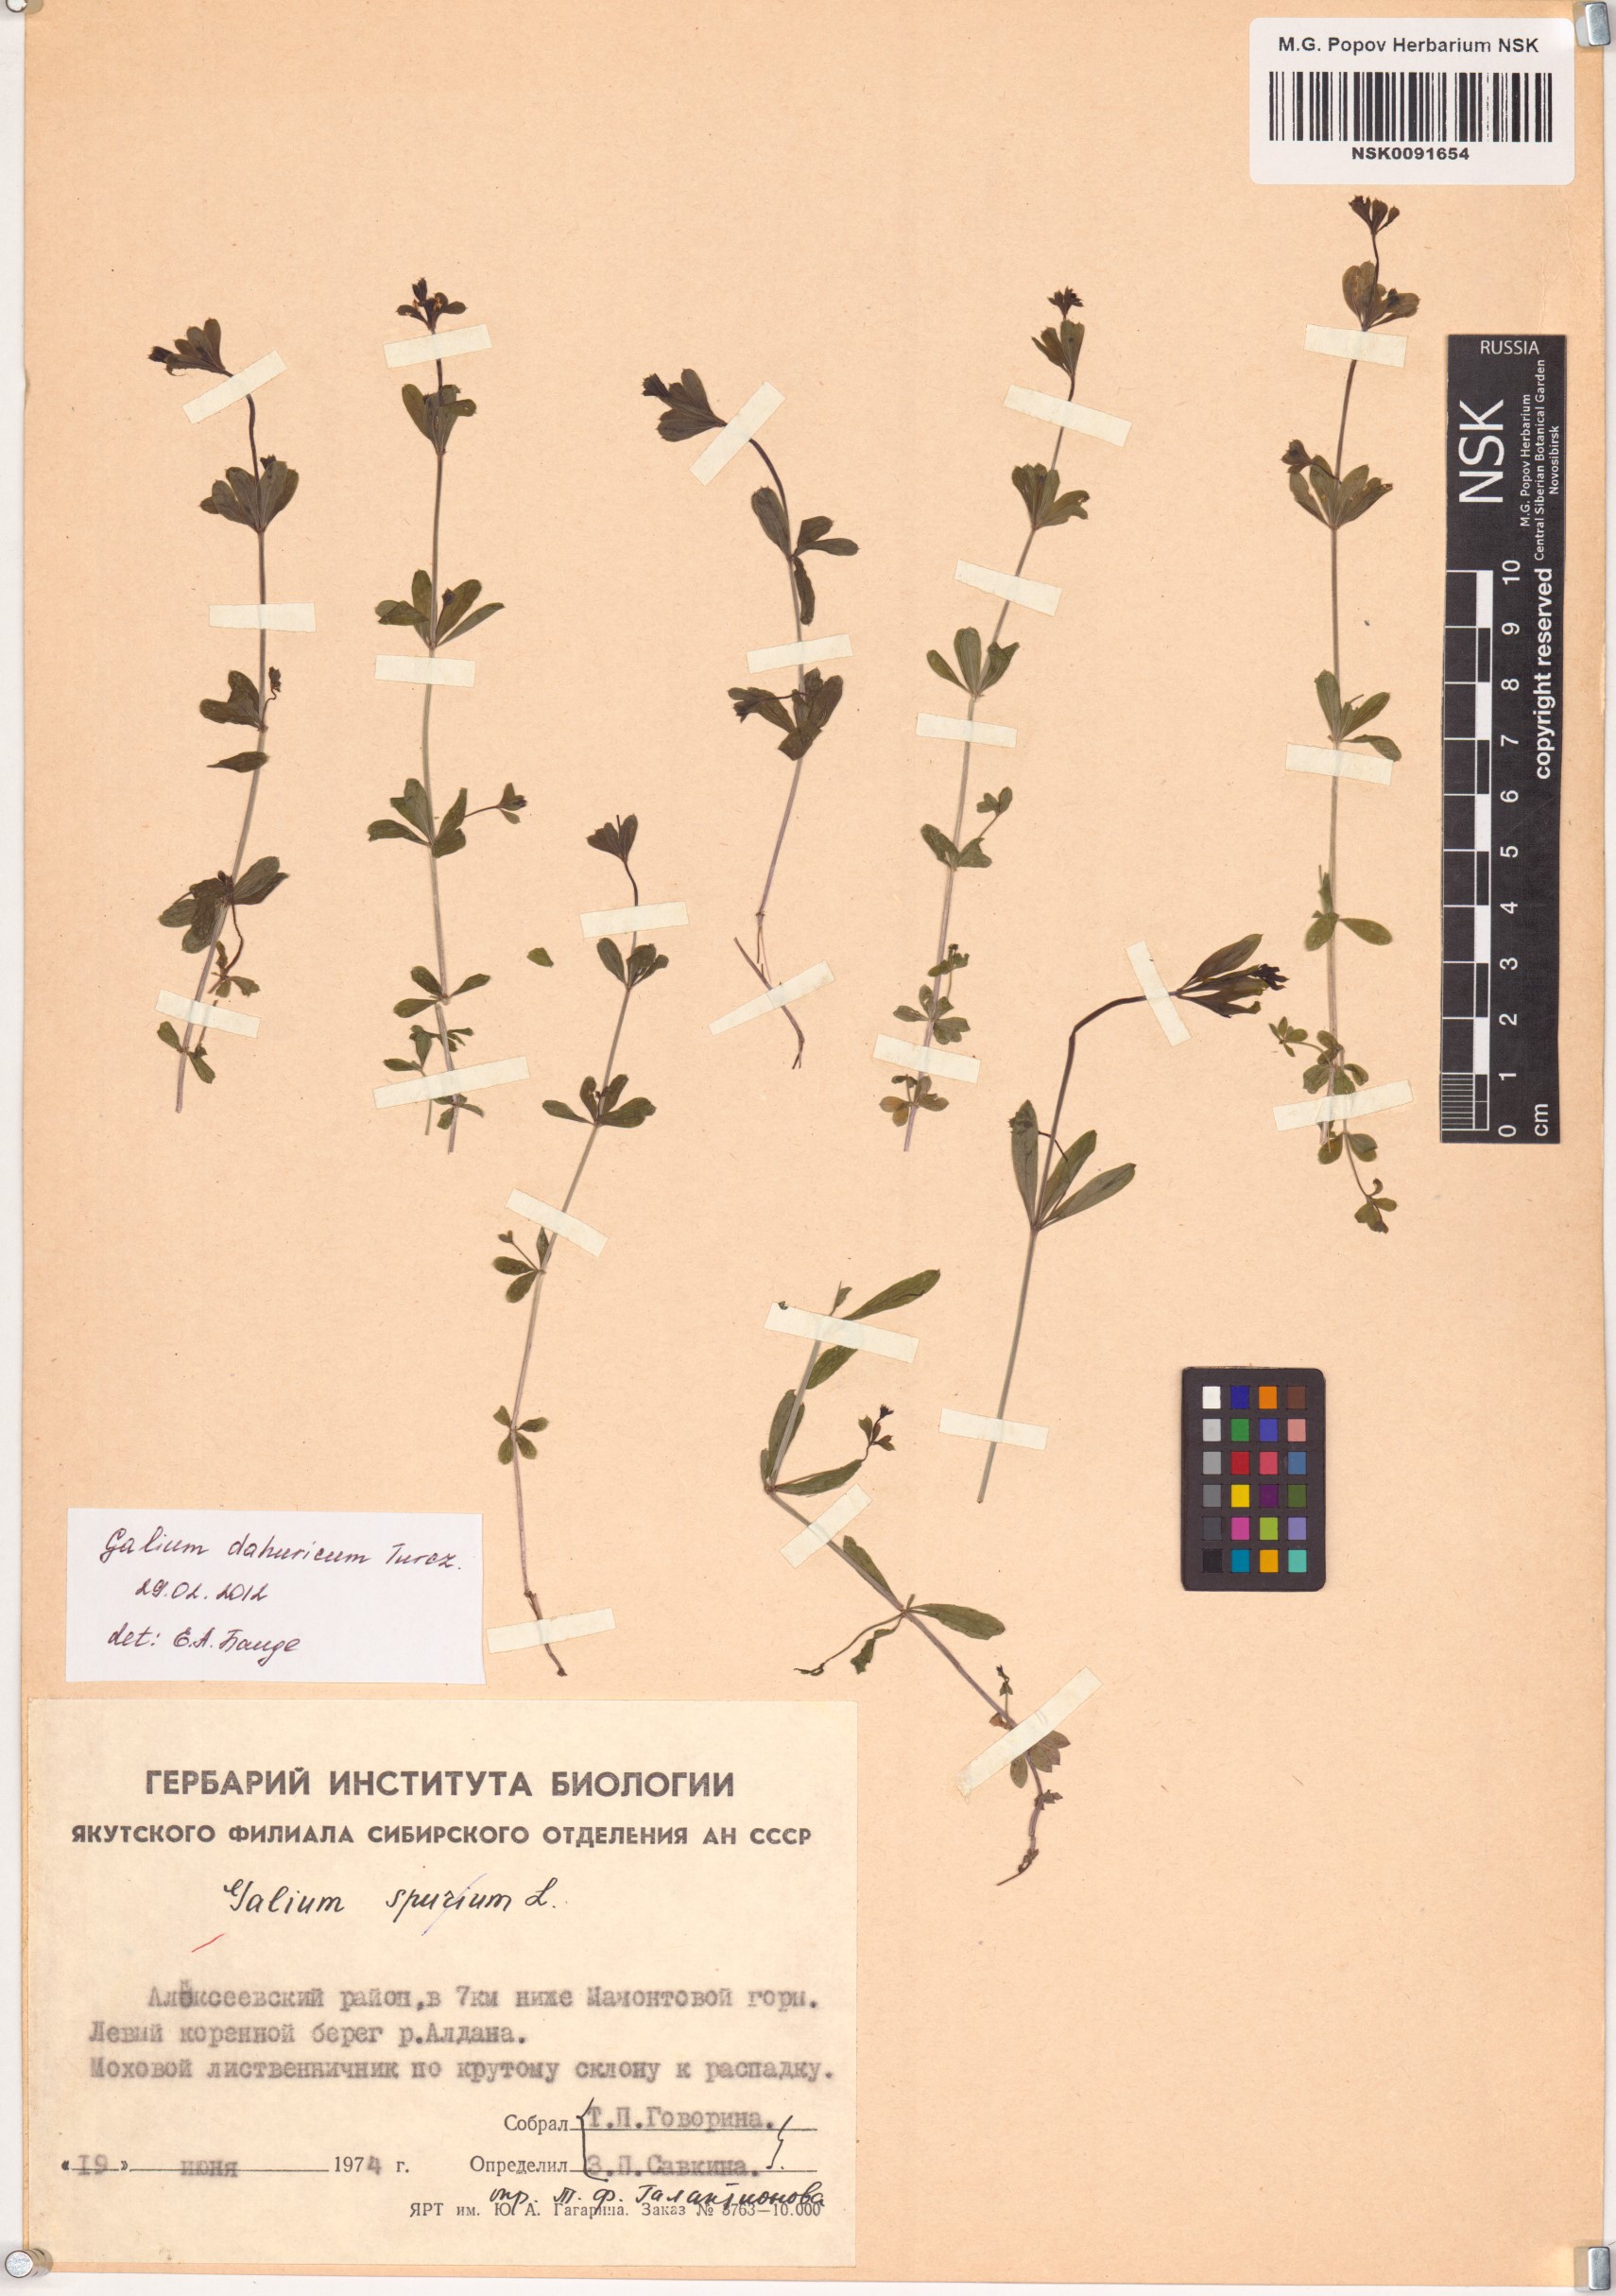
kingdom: Plantae
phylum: Tracheophyta
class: Magnoliopsida
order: Gentianales
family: Rubiaceae
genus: Galium
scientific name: Galium dahuricum
